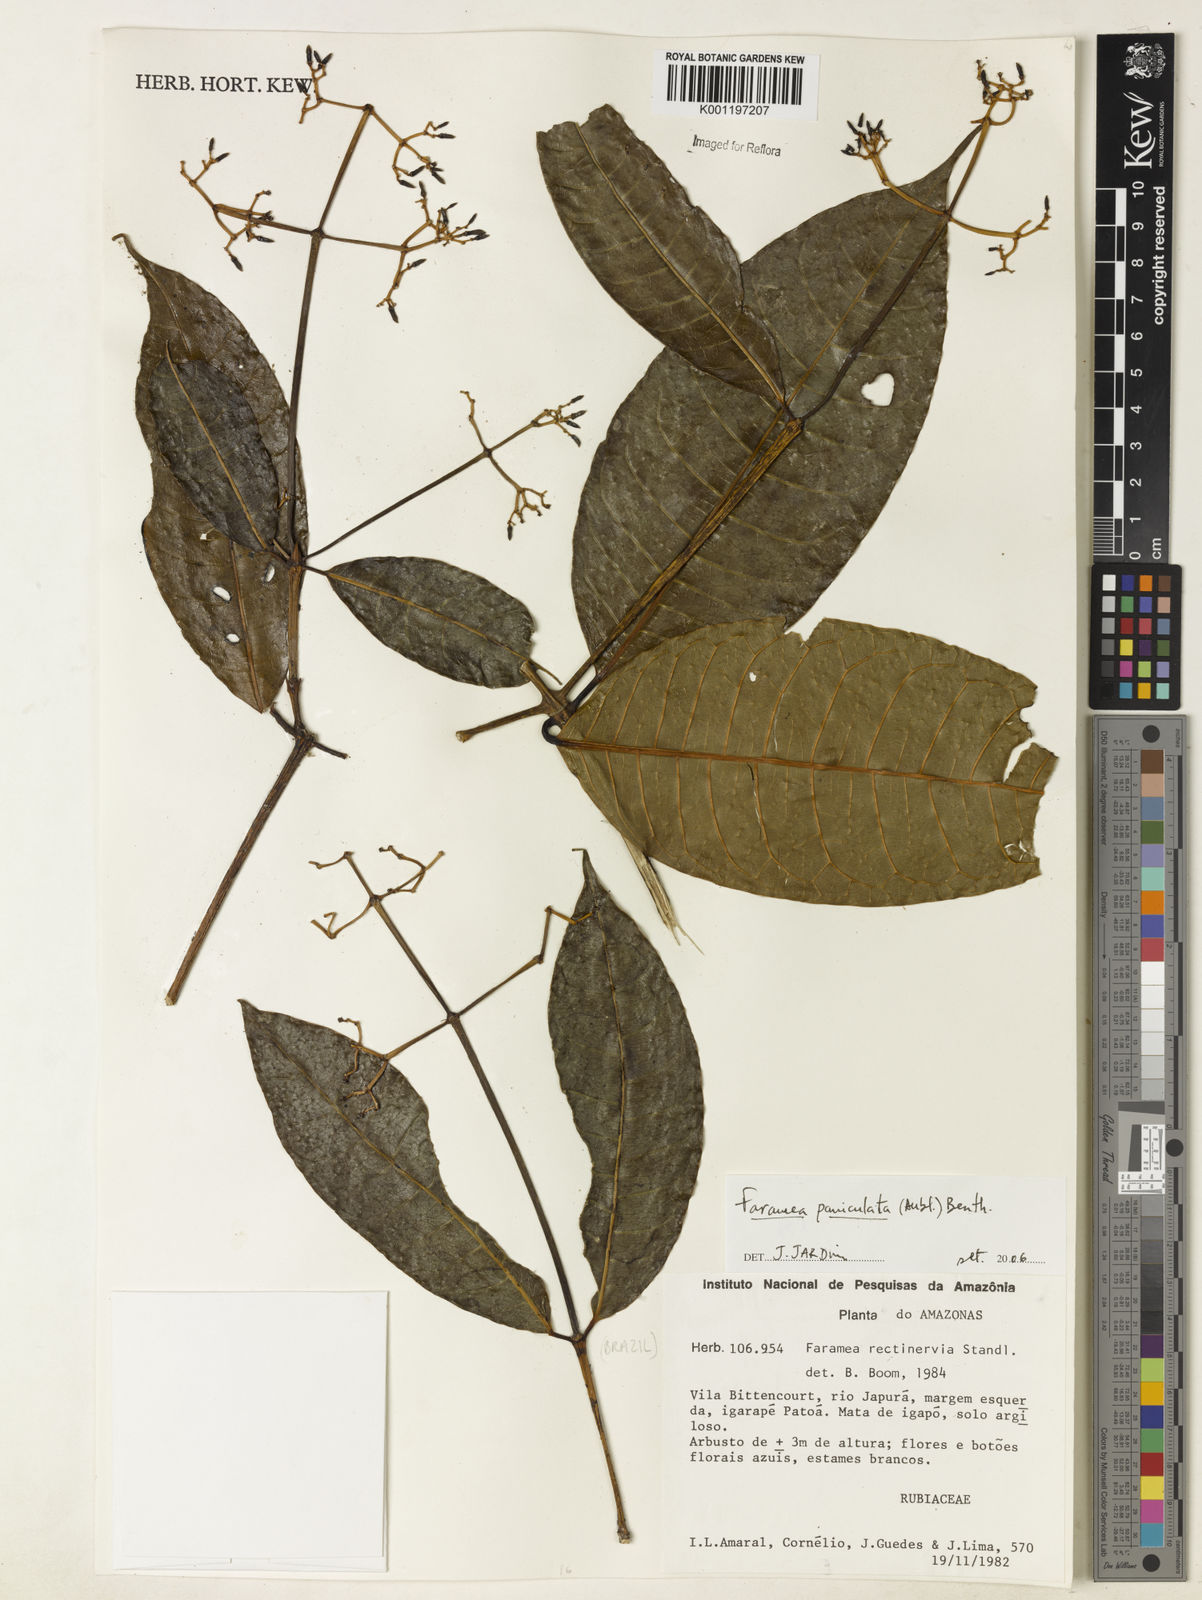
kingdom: Plantae
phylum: Tracheophyta
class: Magnoliopsida
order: Gentianales
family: Rubiaceae
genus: Faramea
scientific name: Faramea paniculata
